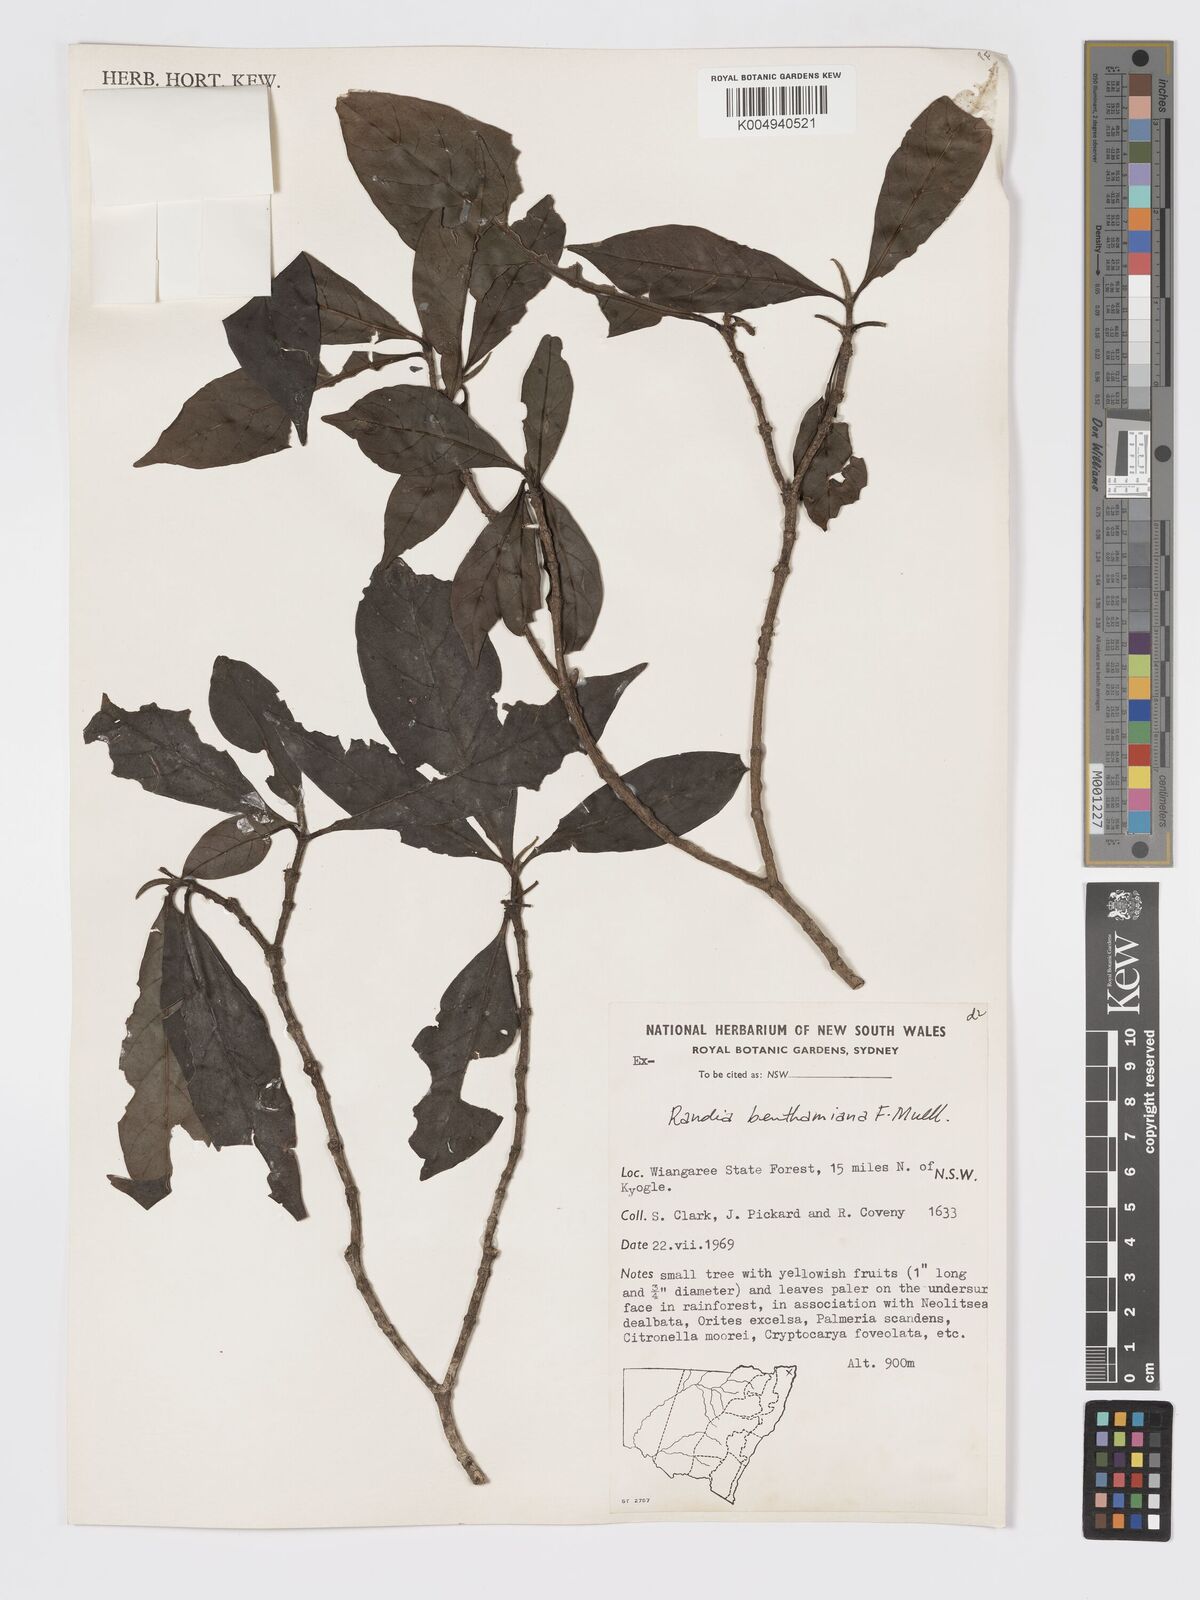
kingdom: Plantae
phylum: Tracheophyta
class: Magnoliopsida
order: Gentianales
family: Rubiaceae
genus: Atractocarpus
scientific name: Atractocarpus benthamianus
